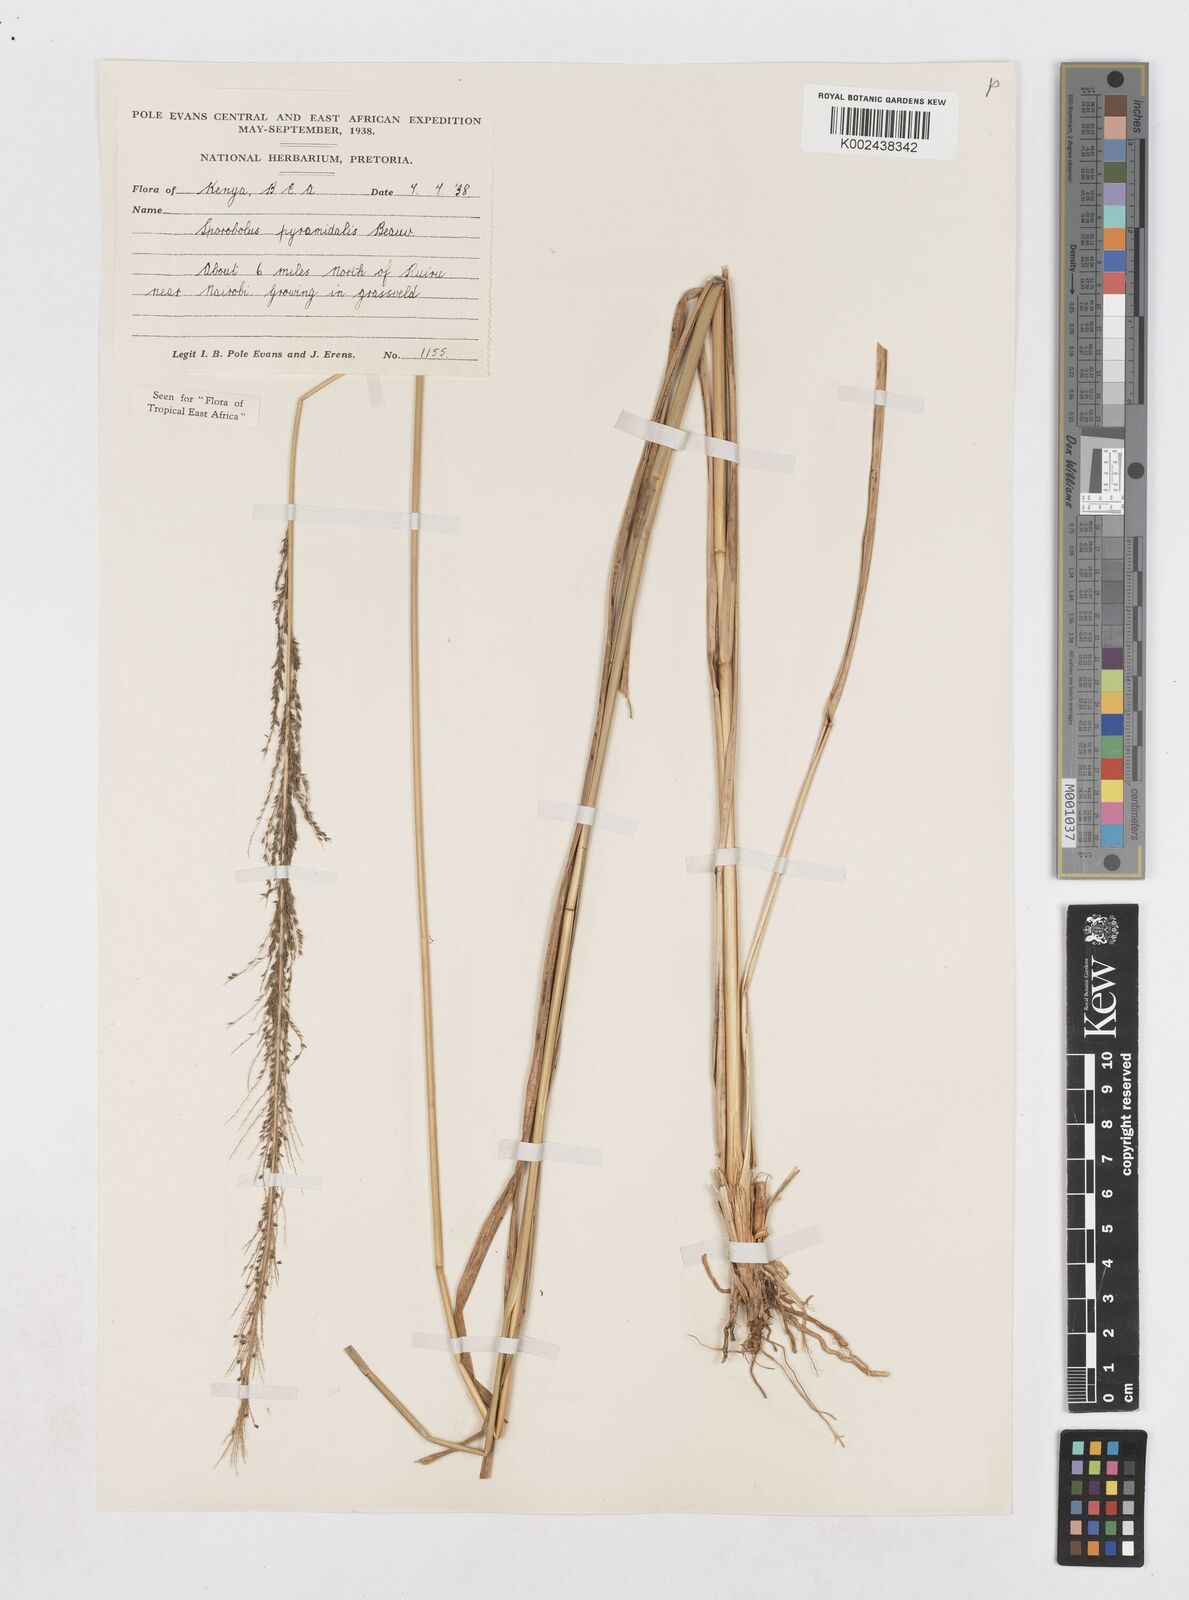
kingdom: Plantae
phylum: Tracheophyta
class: Liliopsida
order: Poales
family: Poaceae
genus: Sporobolus
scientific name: Sporobolus pyramidalis
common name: West indian dropseed
